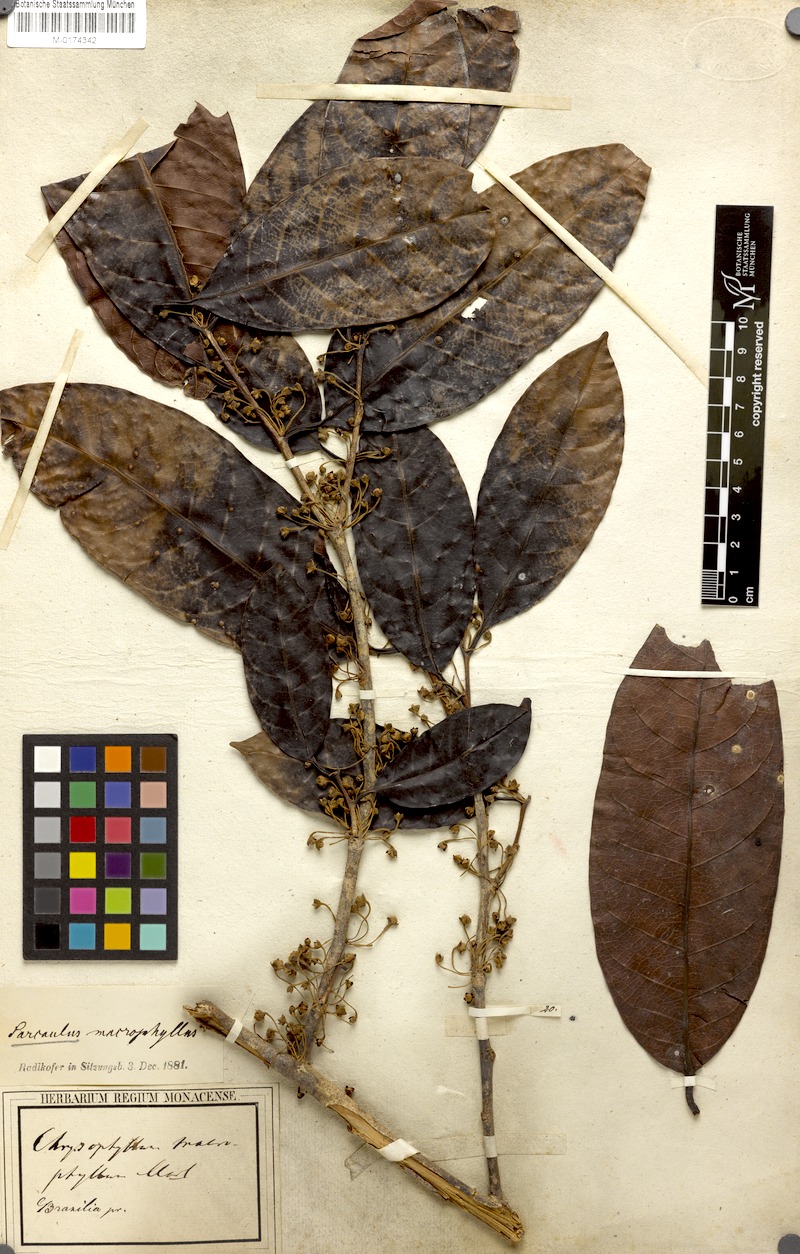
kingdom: Plantae
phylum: Tracheophyta
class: Magnoliopsida
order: Ericales
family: Sapotaceae
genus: Sarcaulus
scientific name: Sarcaulus brasiliensis
